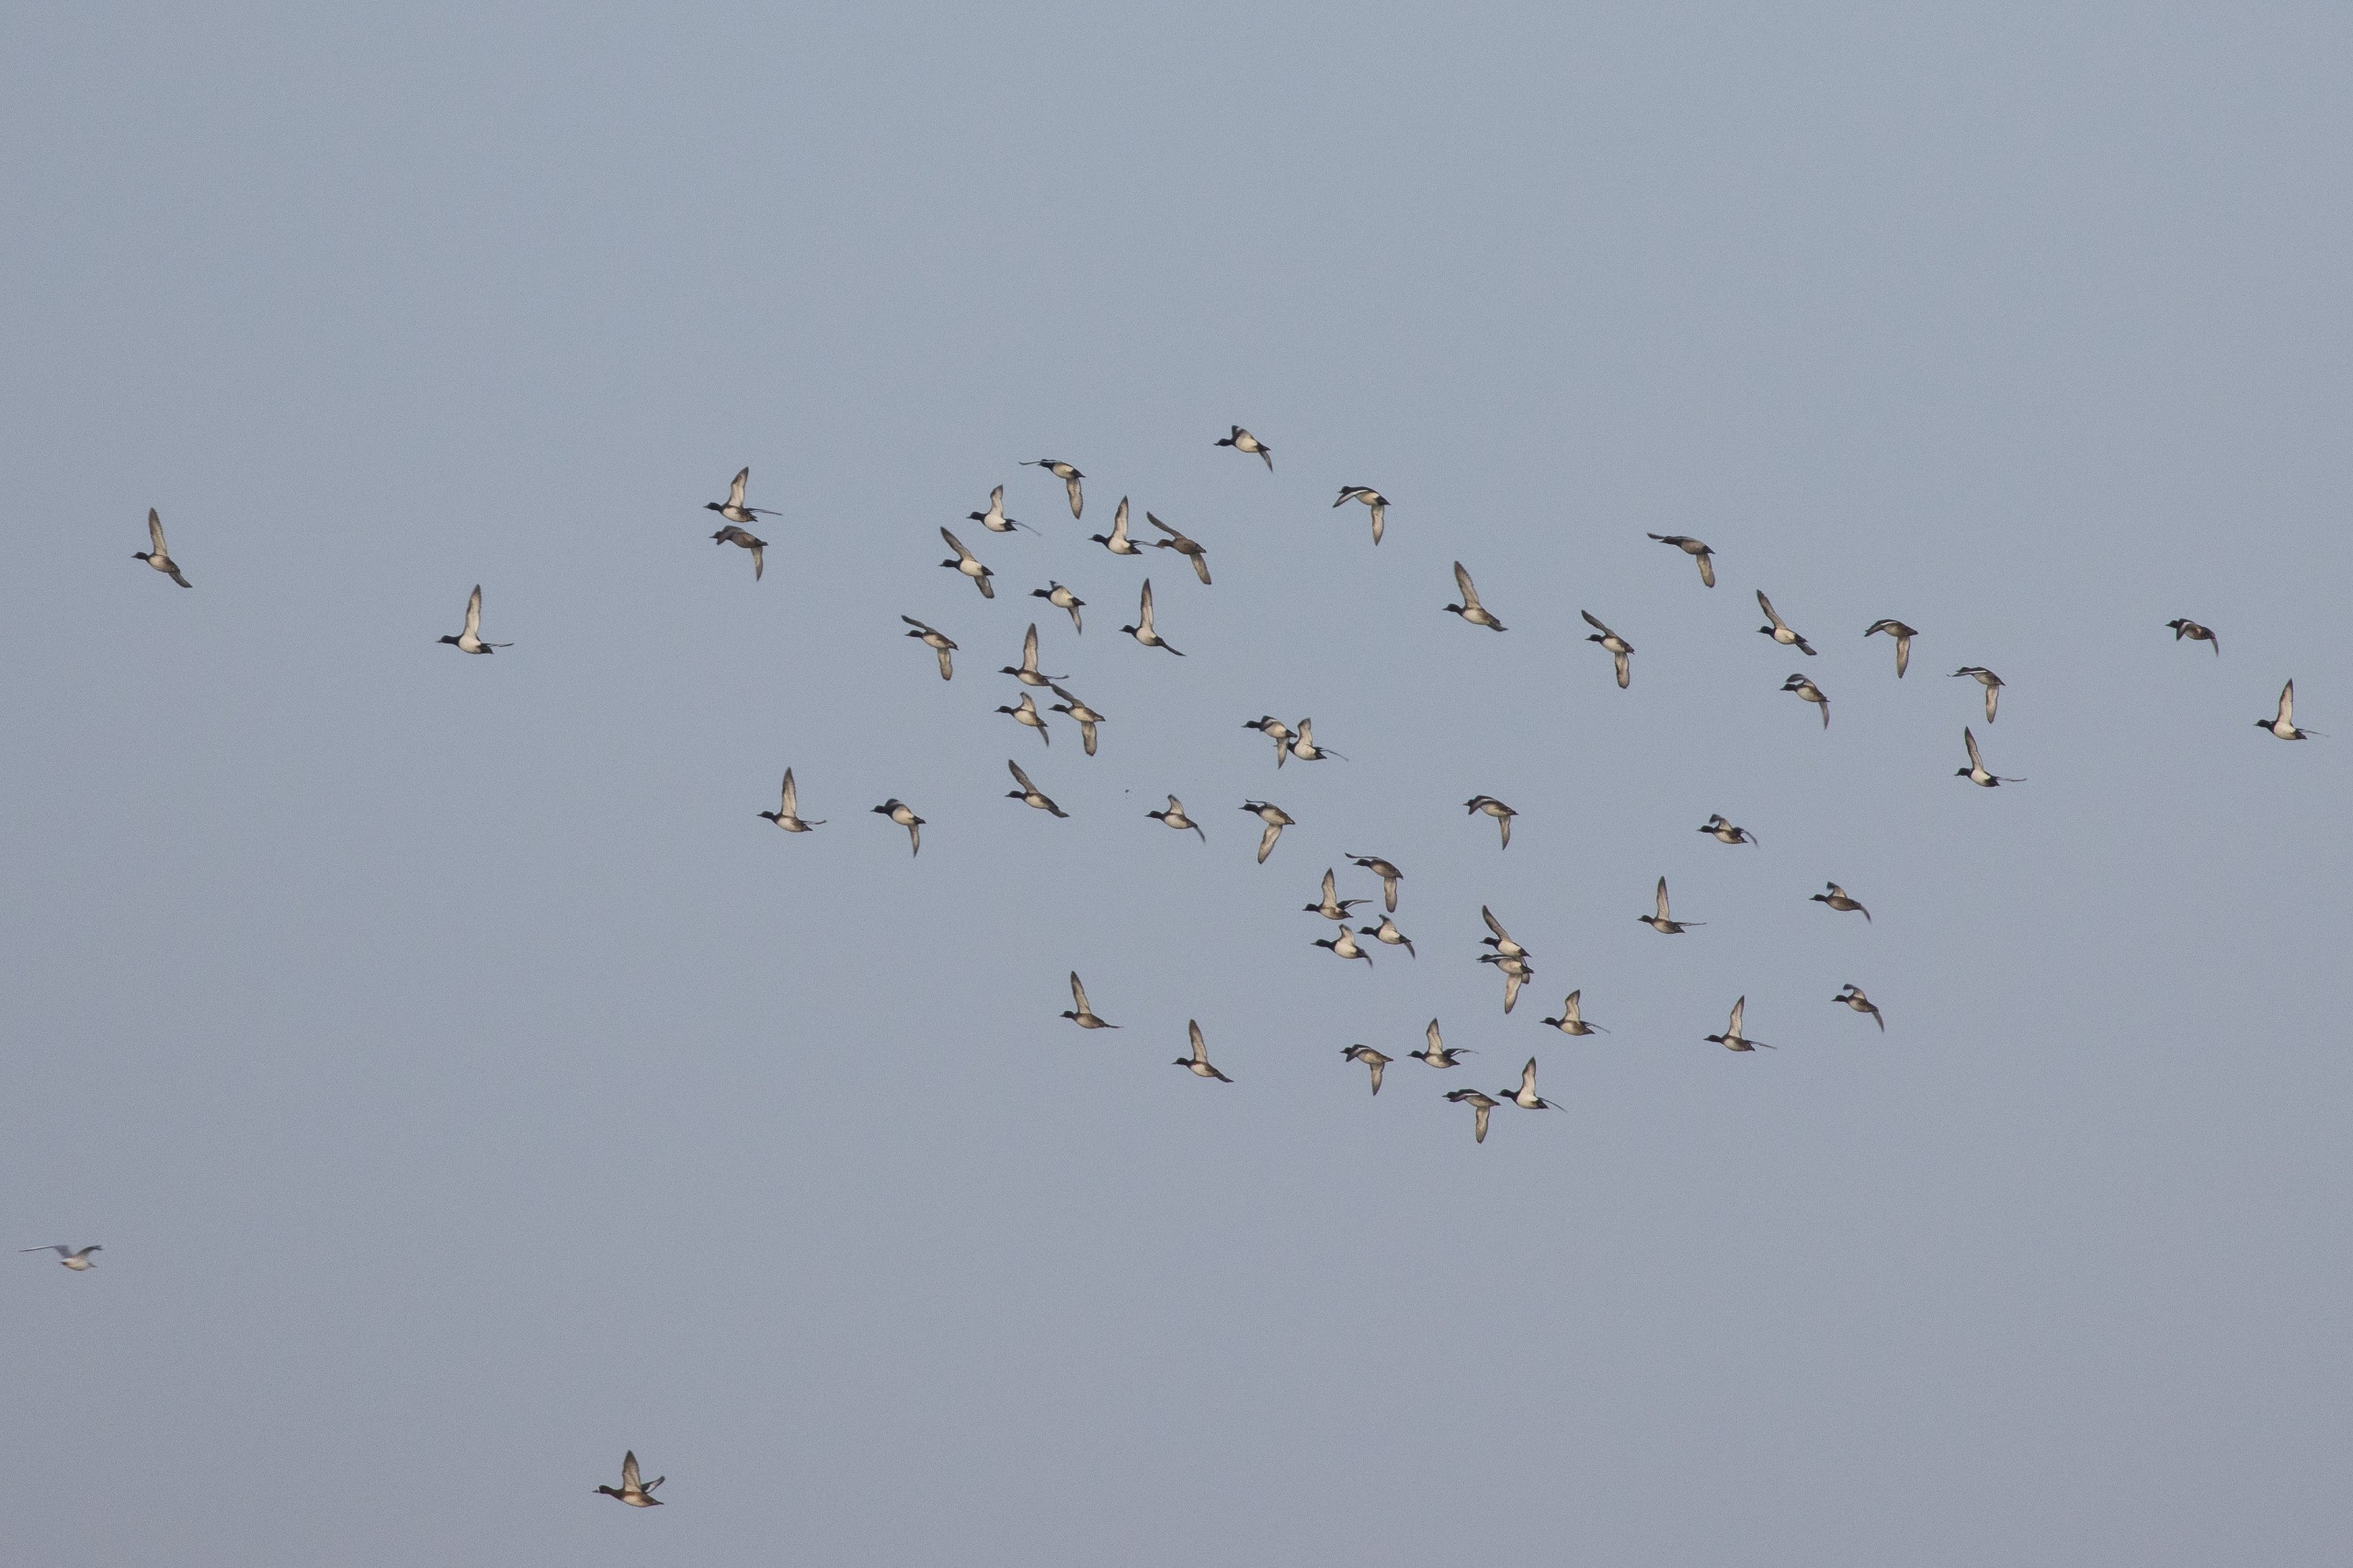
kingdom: Animalia
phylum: Chordata
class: Aves
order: Anseriformes
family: Anatidae
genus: Aythya
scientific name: Aythya fuligula
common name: Troldand
